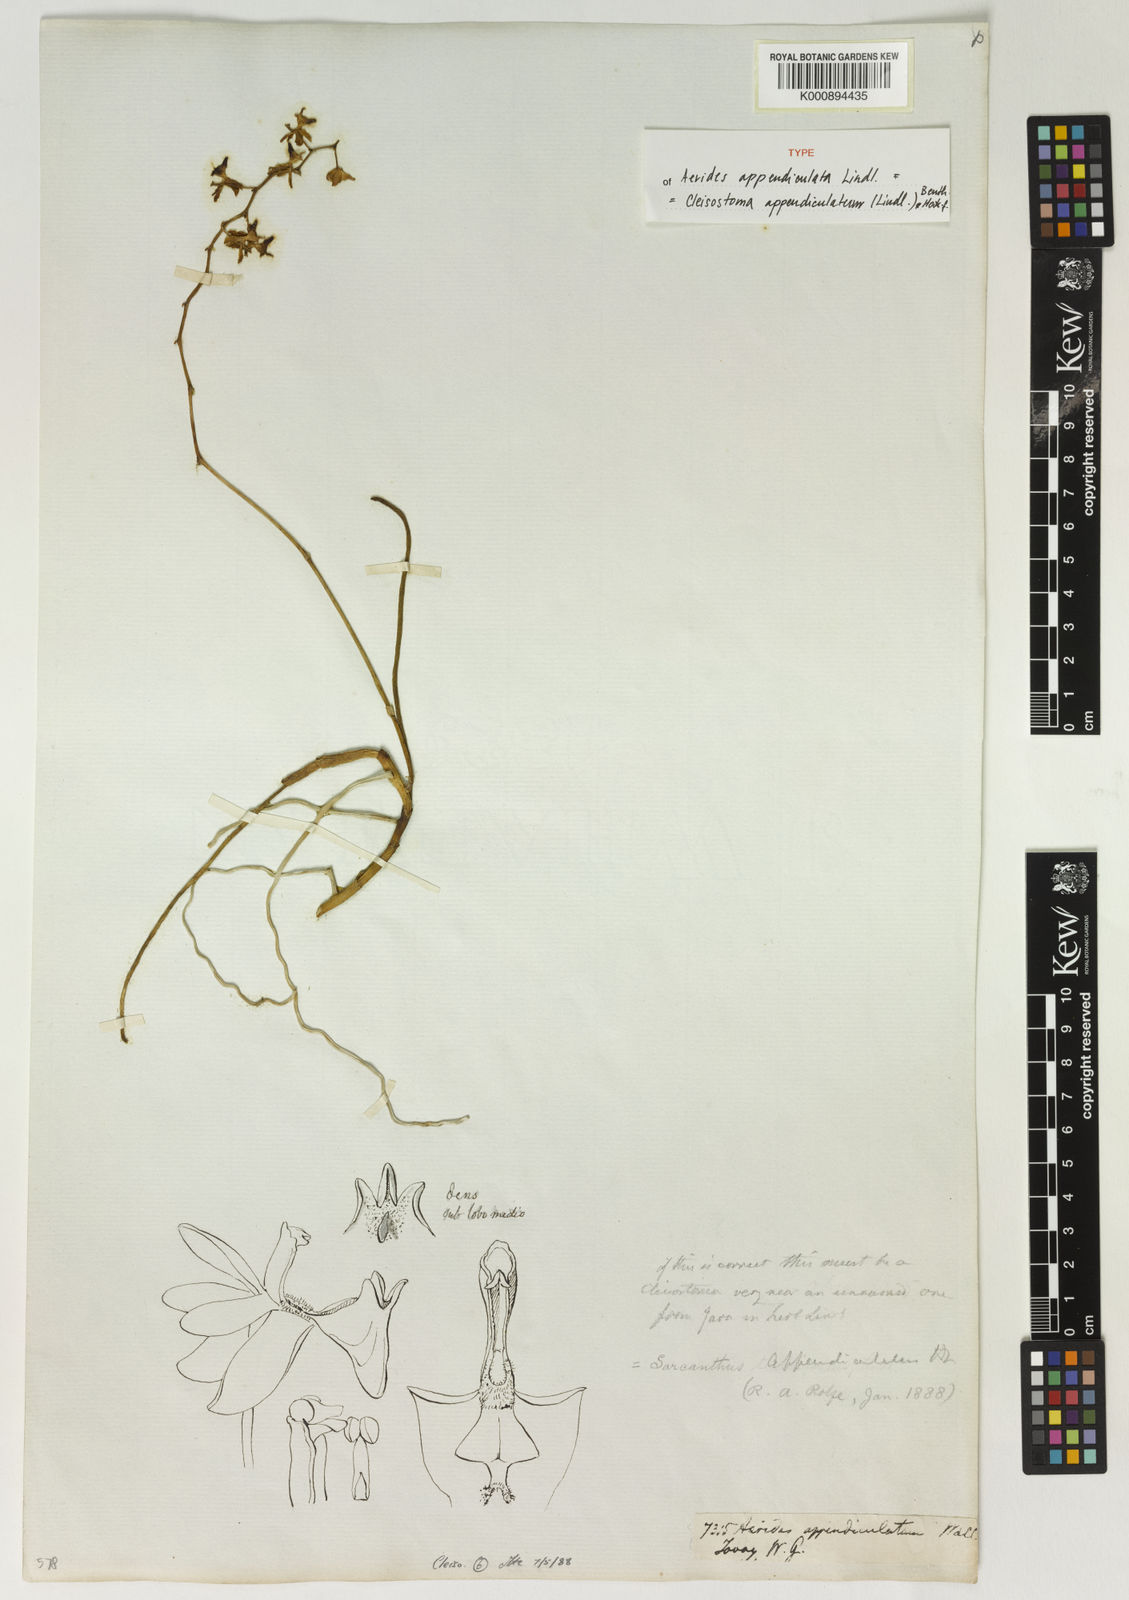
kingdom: Plantae
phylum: Tracheophyta
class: Liliopsida
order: Asparagales
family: Orchidaceae
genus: Cleisostoma
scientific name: Cleisostoma appendiculatum
